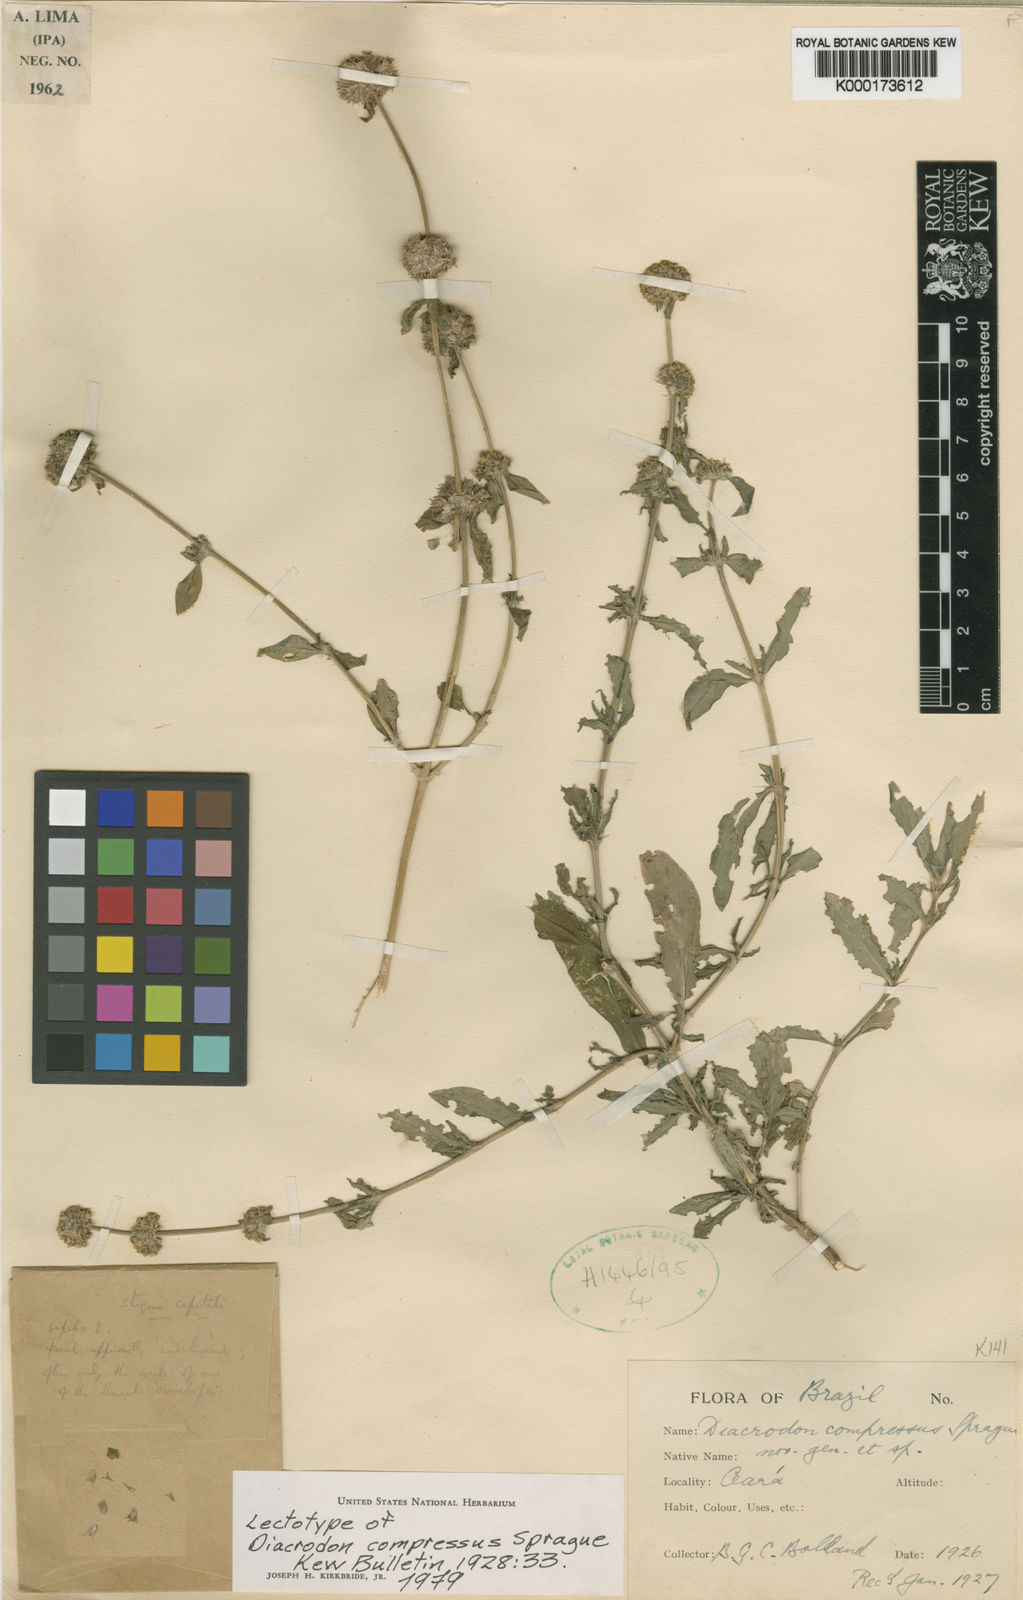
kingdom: Plantae
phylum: Tracheophyta
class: Magnoliopsida
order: Gentianales
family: Rubiaceae
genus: Diacrodon
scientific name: Diacrodon compressus
